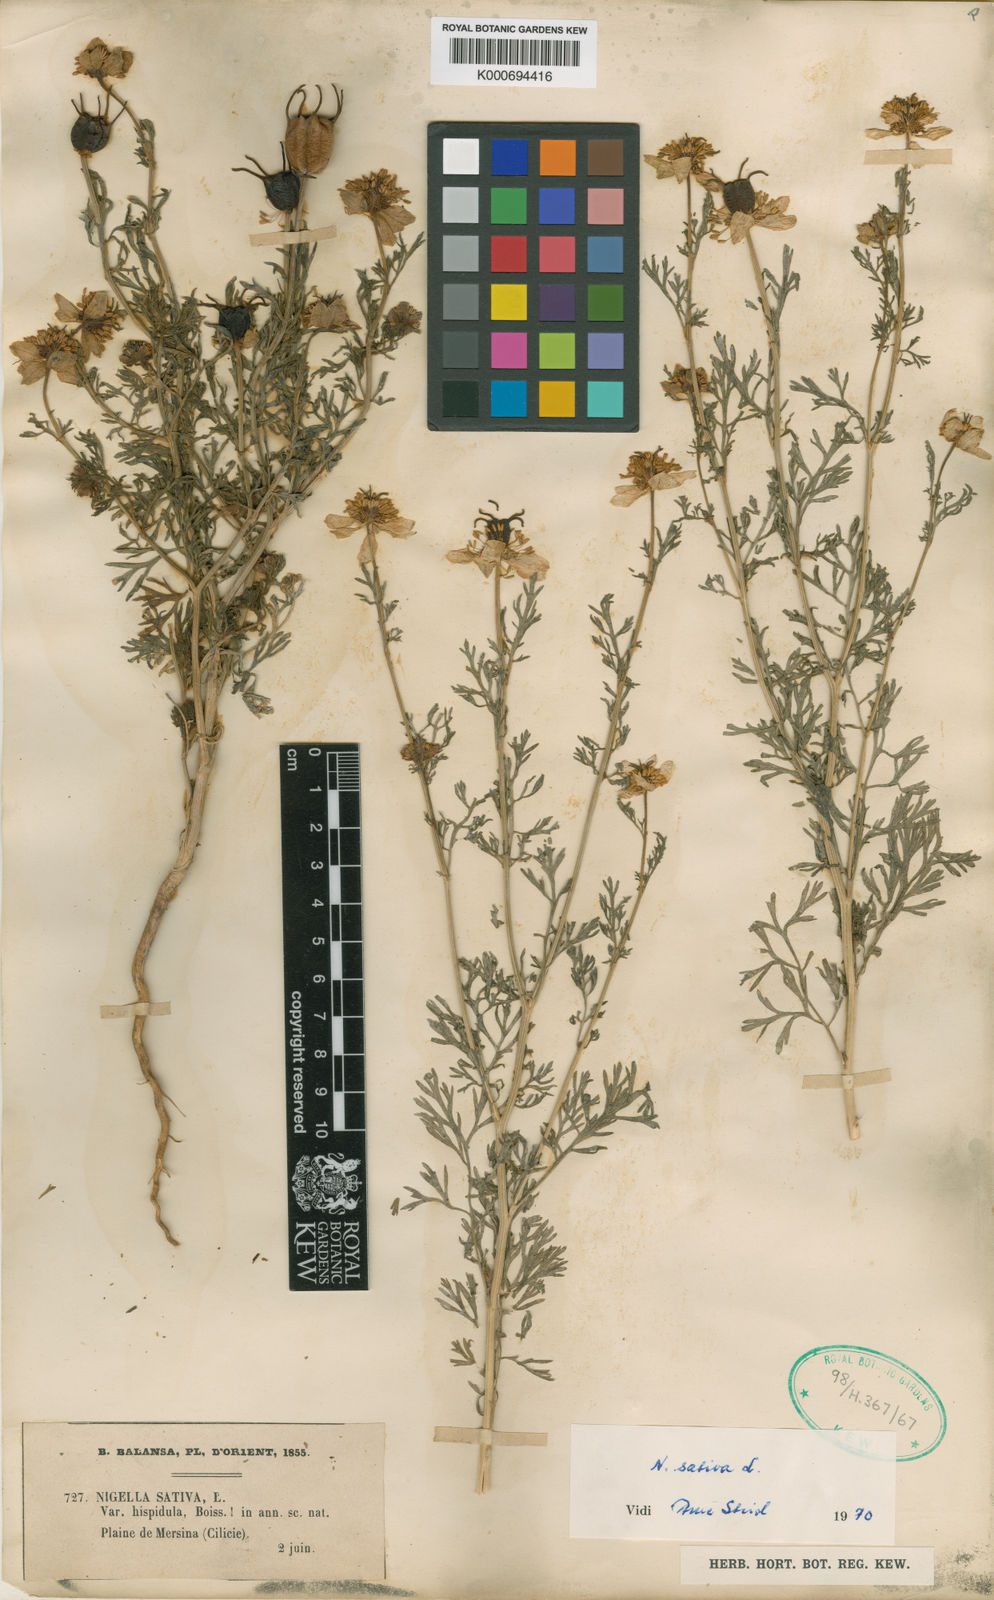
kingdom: Plantae
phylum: Tracheophyta
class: Magnoliopsida
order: Ranunculales
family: Ranunculaceae
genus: Nigella
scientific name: Nigella sativa
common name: Black-cumin
